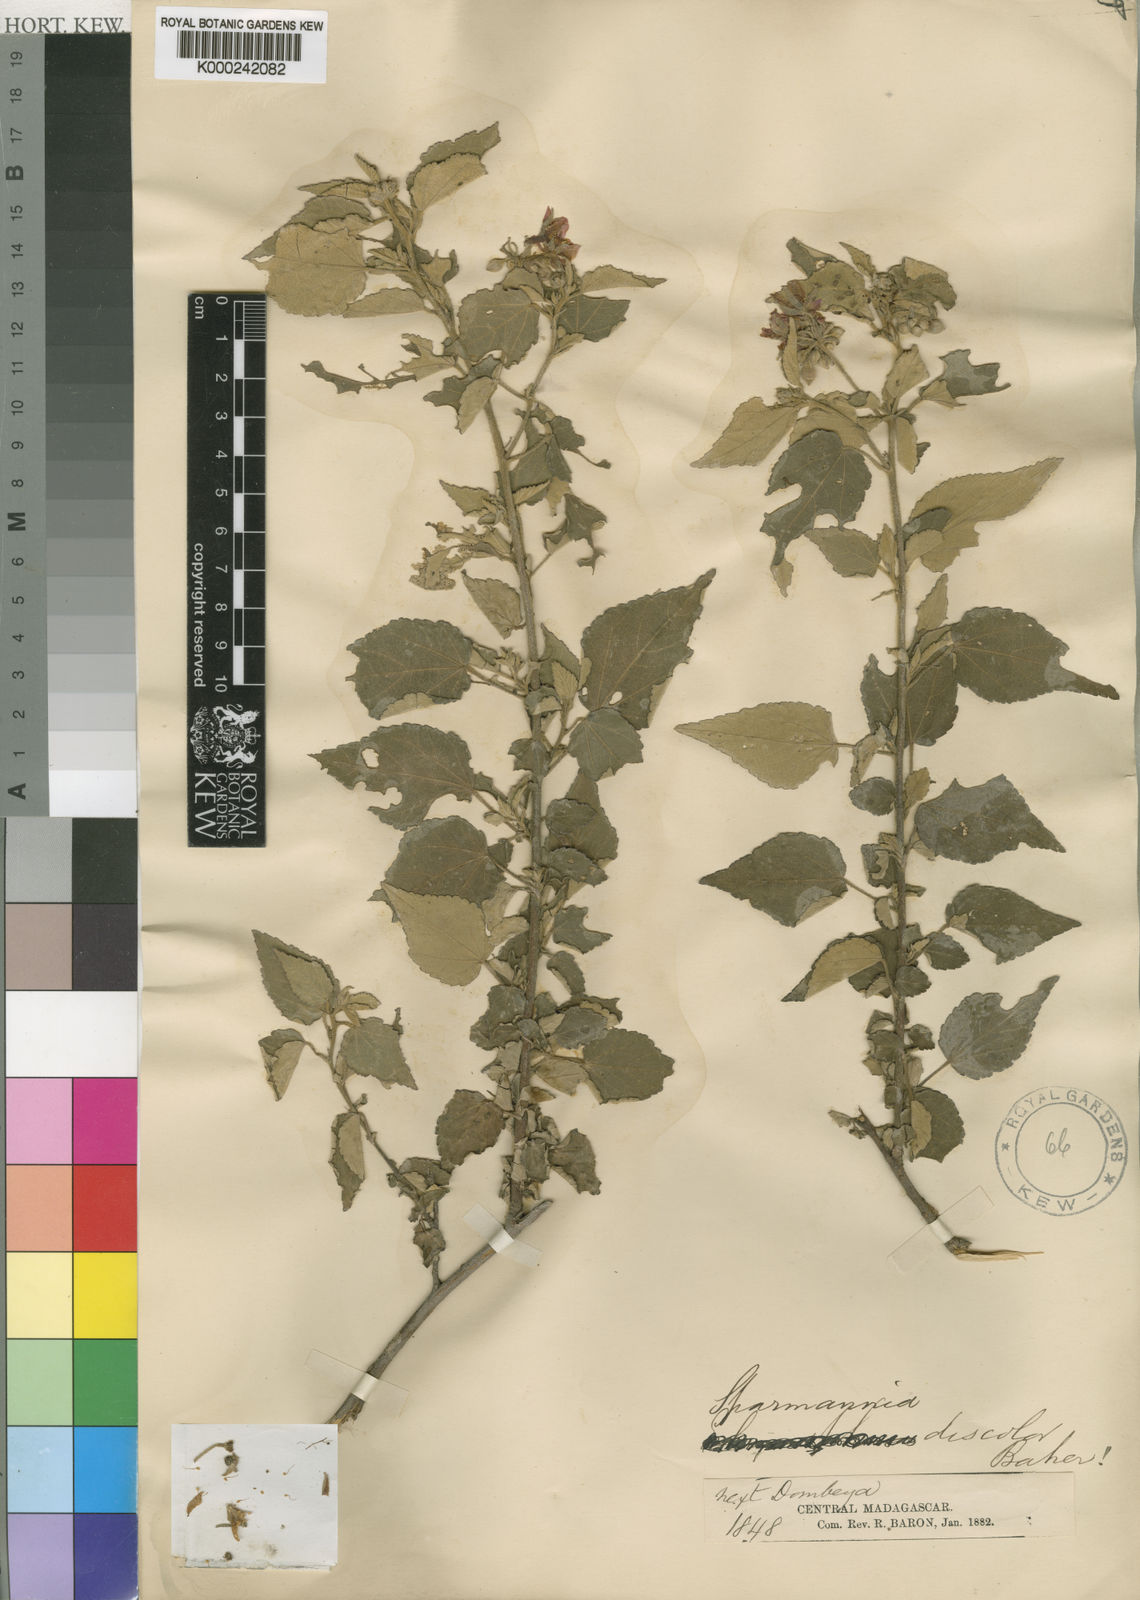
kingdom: Plantae
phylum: Tracheophyta
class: Magnoliopsida
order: Malvales
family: Malvaceae
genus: Sparrmannia
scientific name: Sparrmannia discolor
